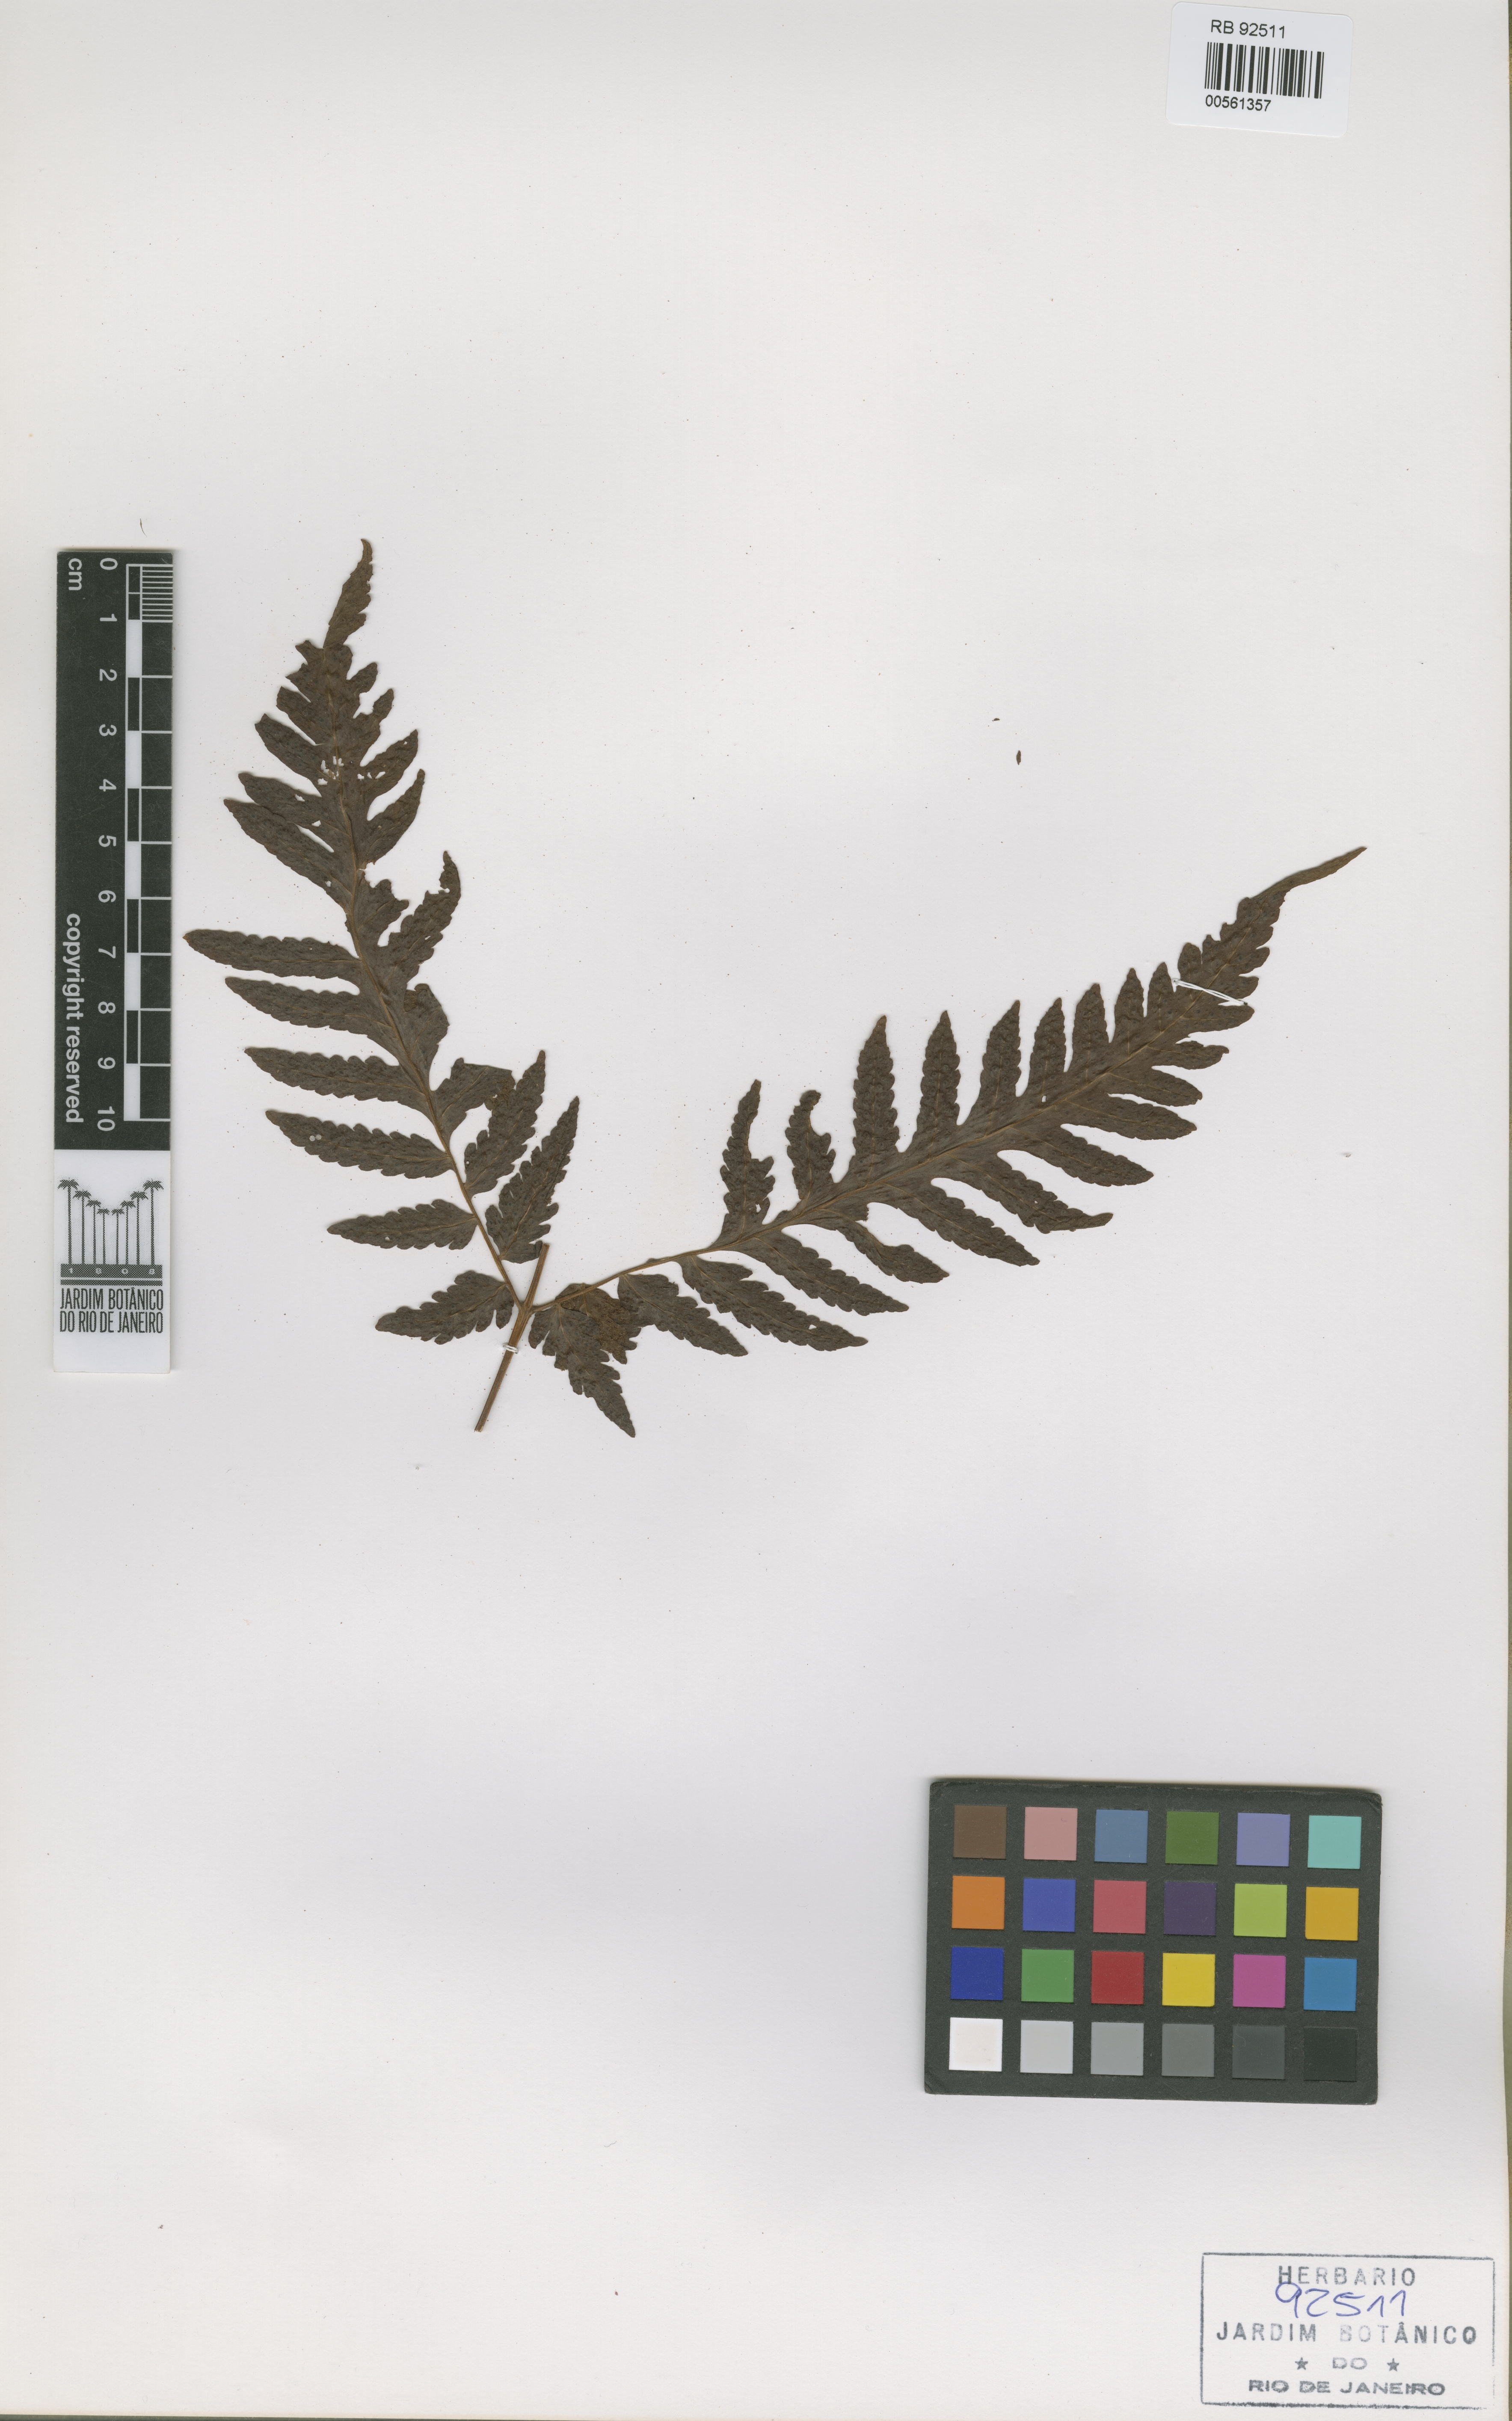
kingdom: Plantae
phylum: Tracheophyta
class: Polypodiopsida
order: Polypodiales
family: Tectariaceae
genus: Tectaria
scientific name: Tectaria mexicana
